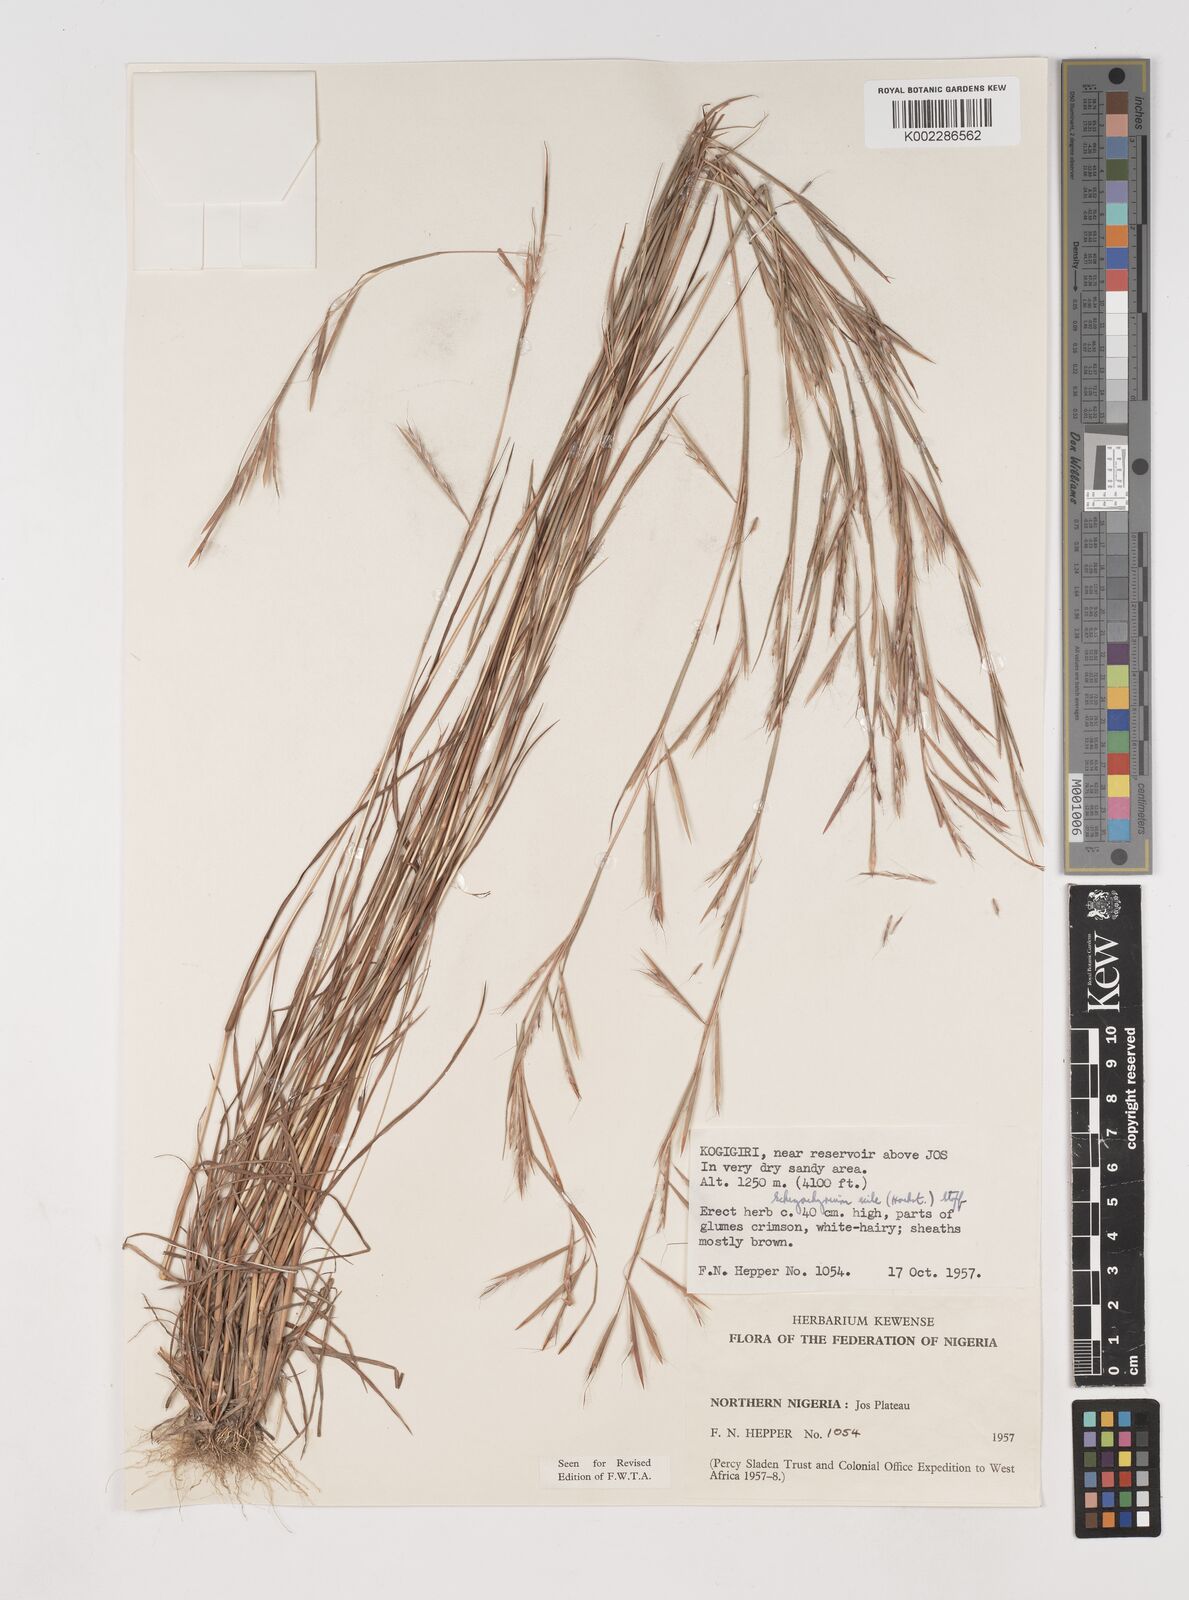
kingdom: Plantae
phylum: Tracheophyta
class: Liliopsida
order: Poales
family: Poaceae
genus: Schizachyrium
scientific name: Schizachyrium exile
